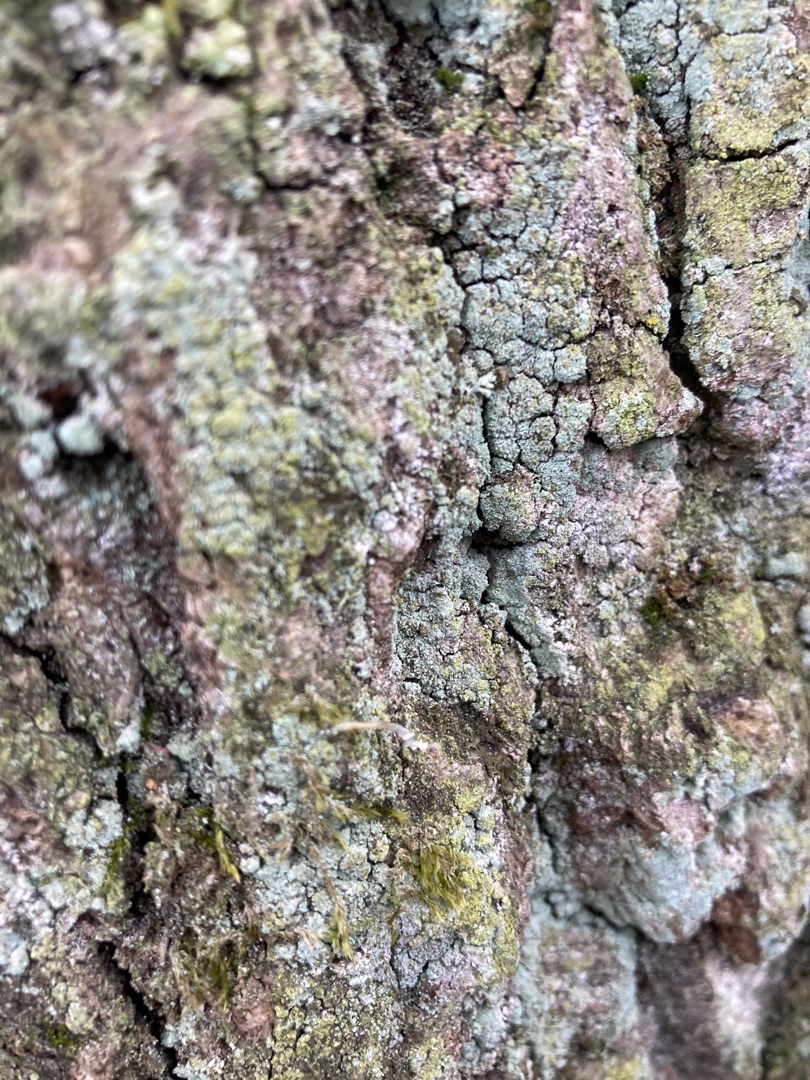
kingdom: Fungi
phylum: Ascomycota
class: Lecanoromycetes
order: Lecanorales
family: Stereocaulaceae
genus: Lepraria
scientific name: Lepraria
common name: Støvlav
